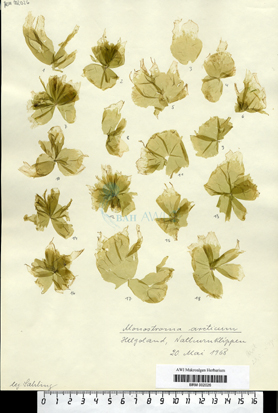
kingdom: Plantae
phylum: Chlorophyta
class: Ulvophyceae
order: Ulvales
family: Monostromataceae
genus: Monostroma
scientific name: Monostroma grevillei
